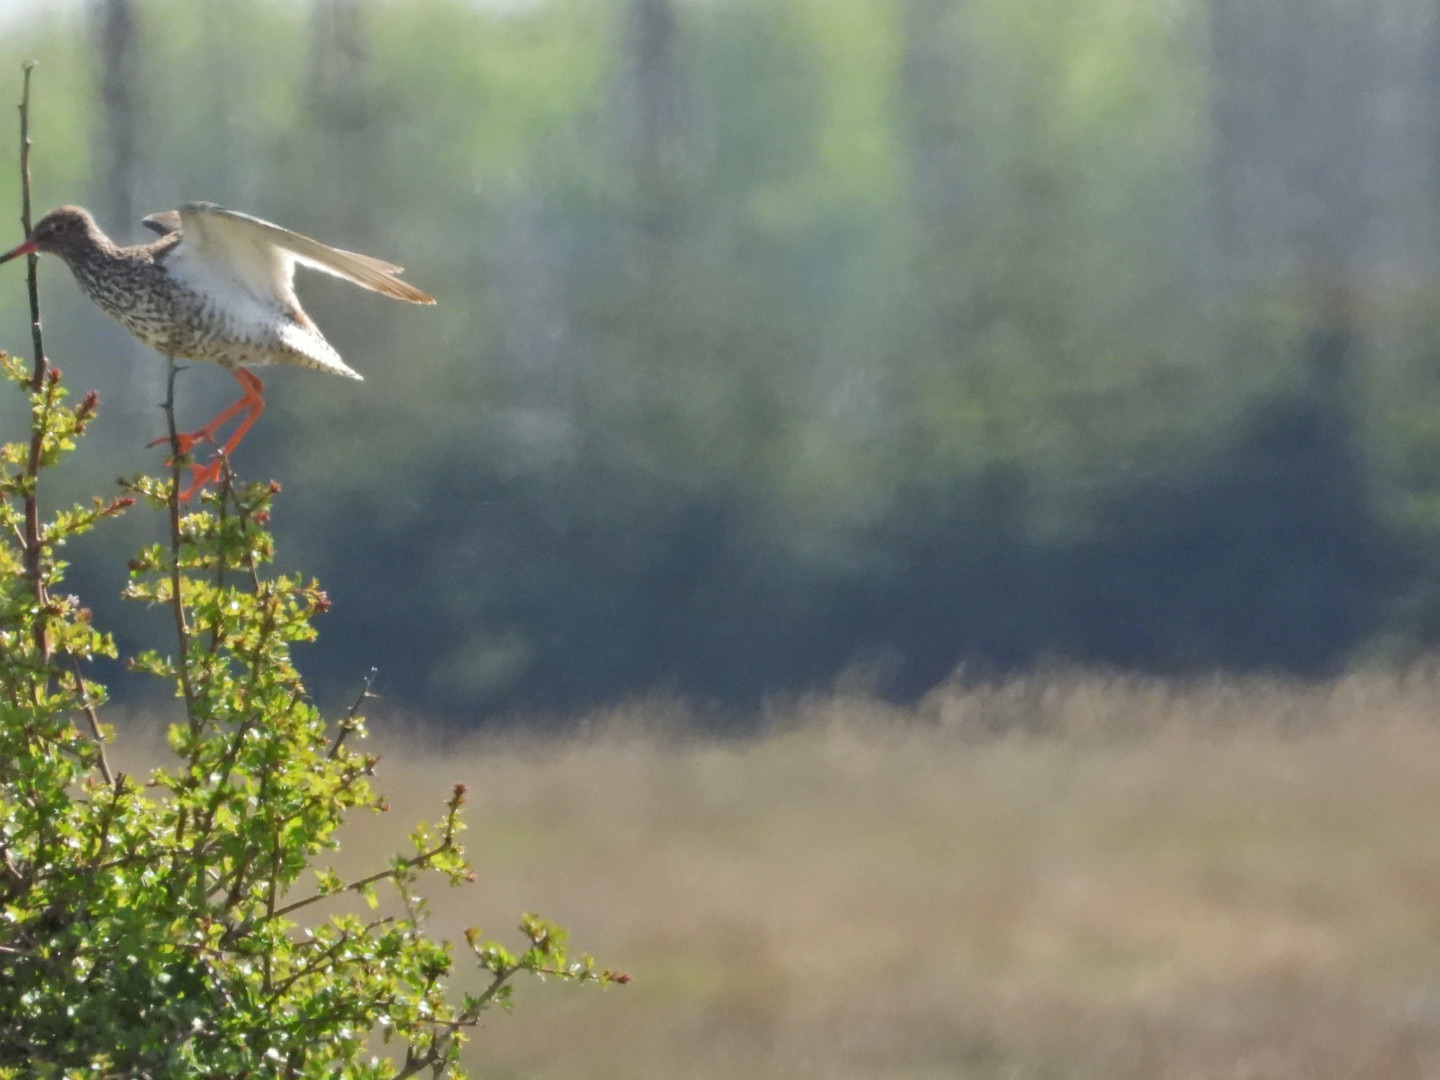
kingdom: Animalia
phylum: Chordata
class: Aves
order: Charadriiformes
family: Scolopacidae
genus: Tringa
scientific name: Tringa totanus
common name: Rødben
